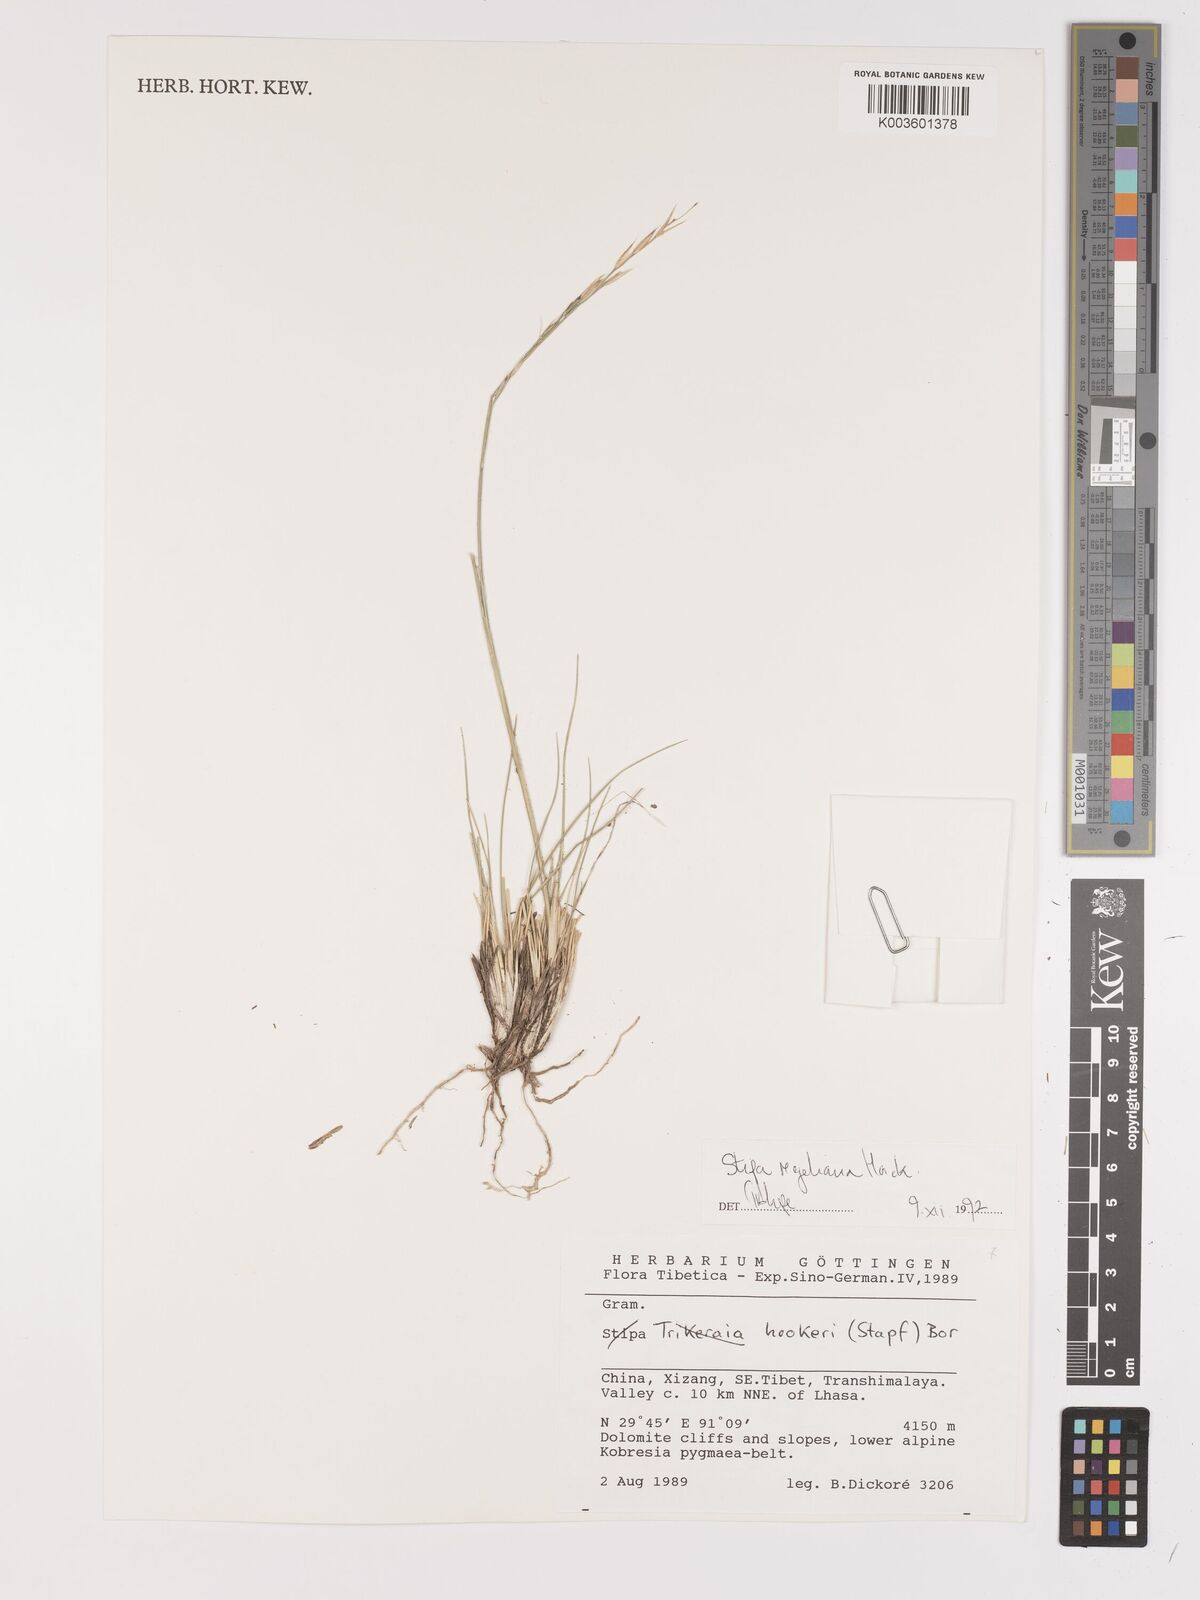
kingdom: Plantae
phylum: Tracheophyta
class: Liliopsida
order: Poales
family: Poaceae
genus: Stipa
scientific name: Stipa regeliana
